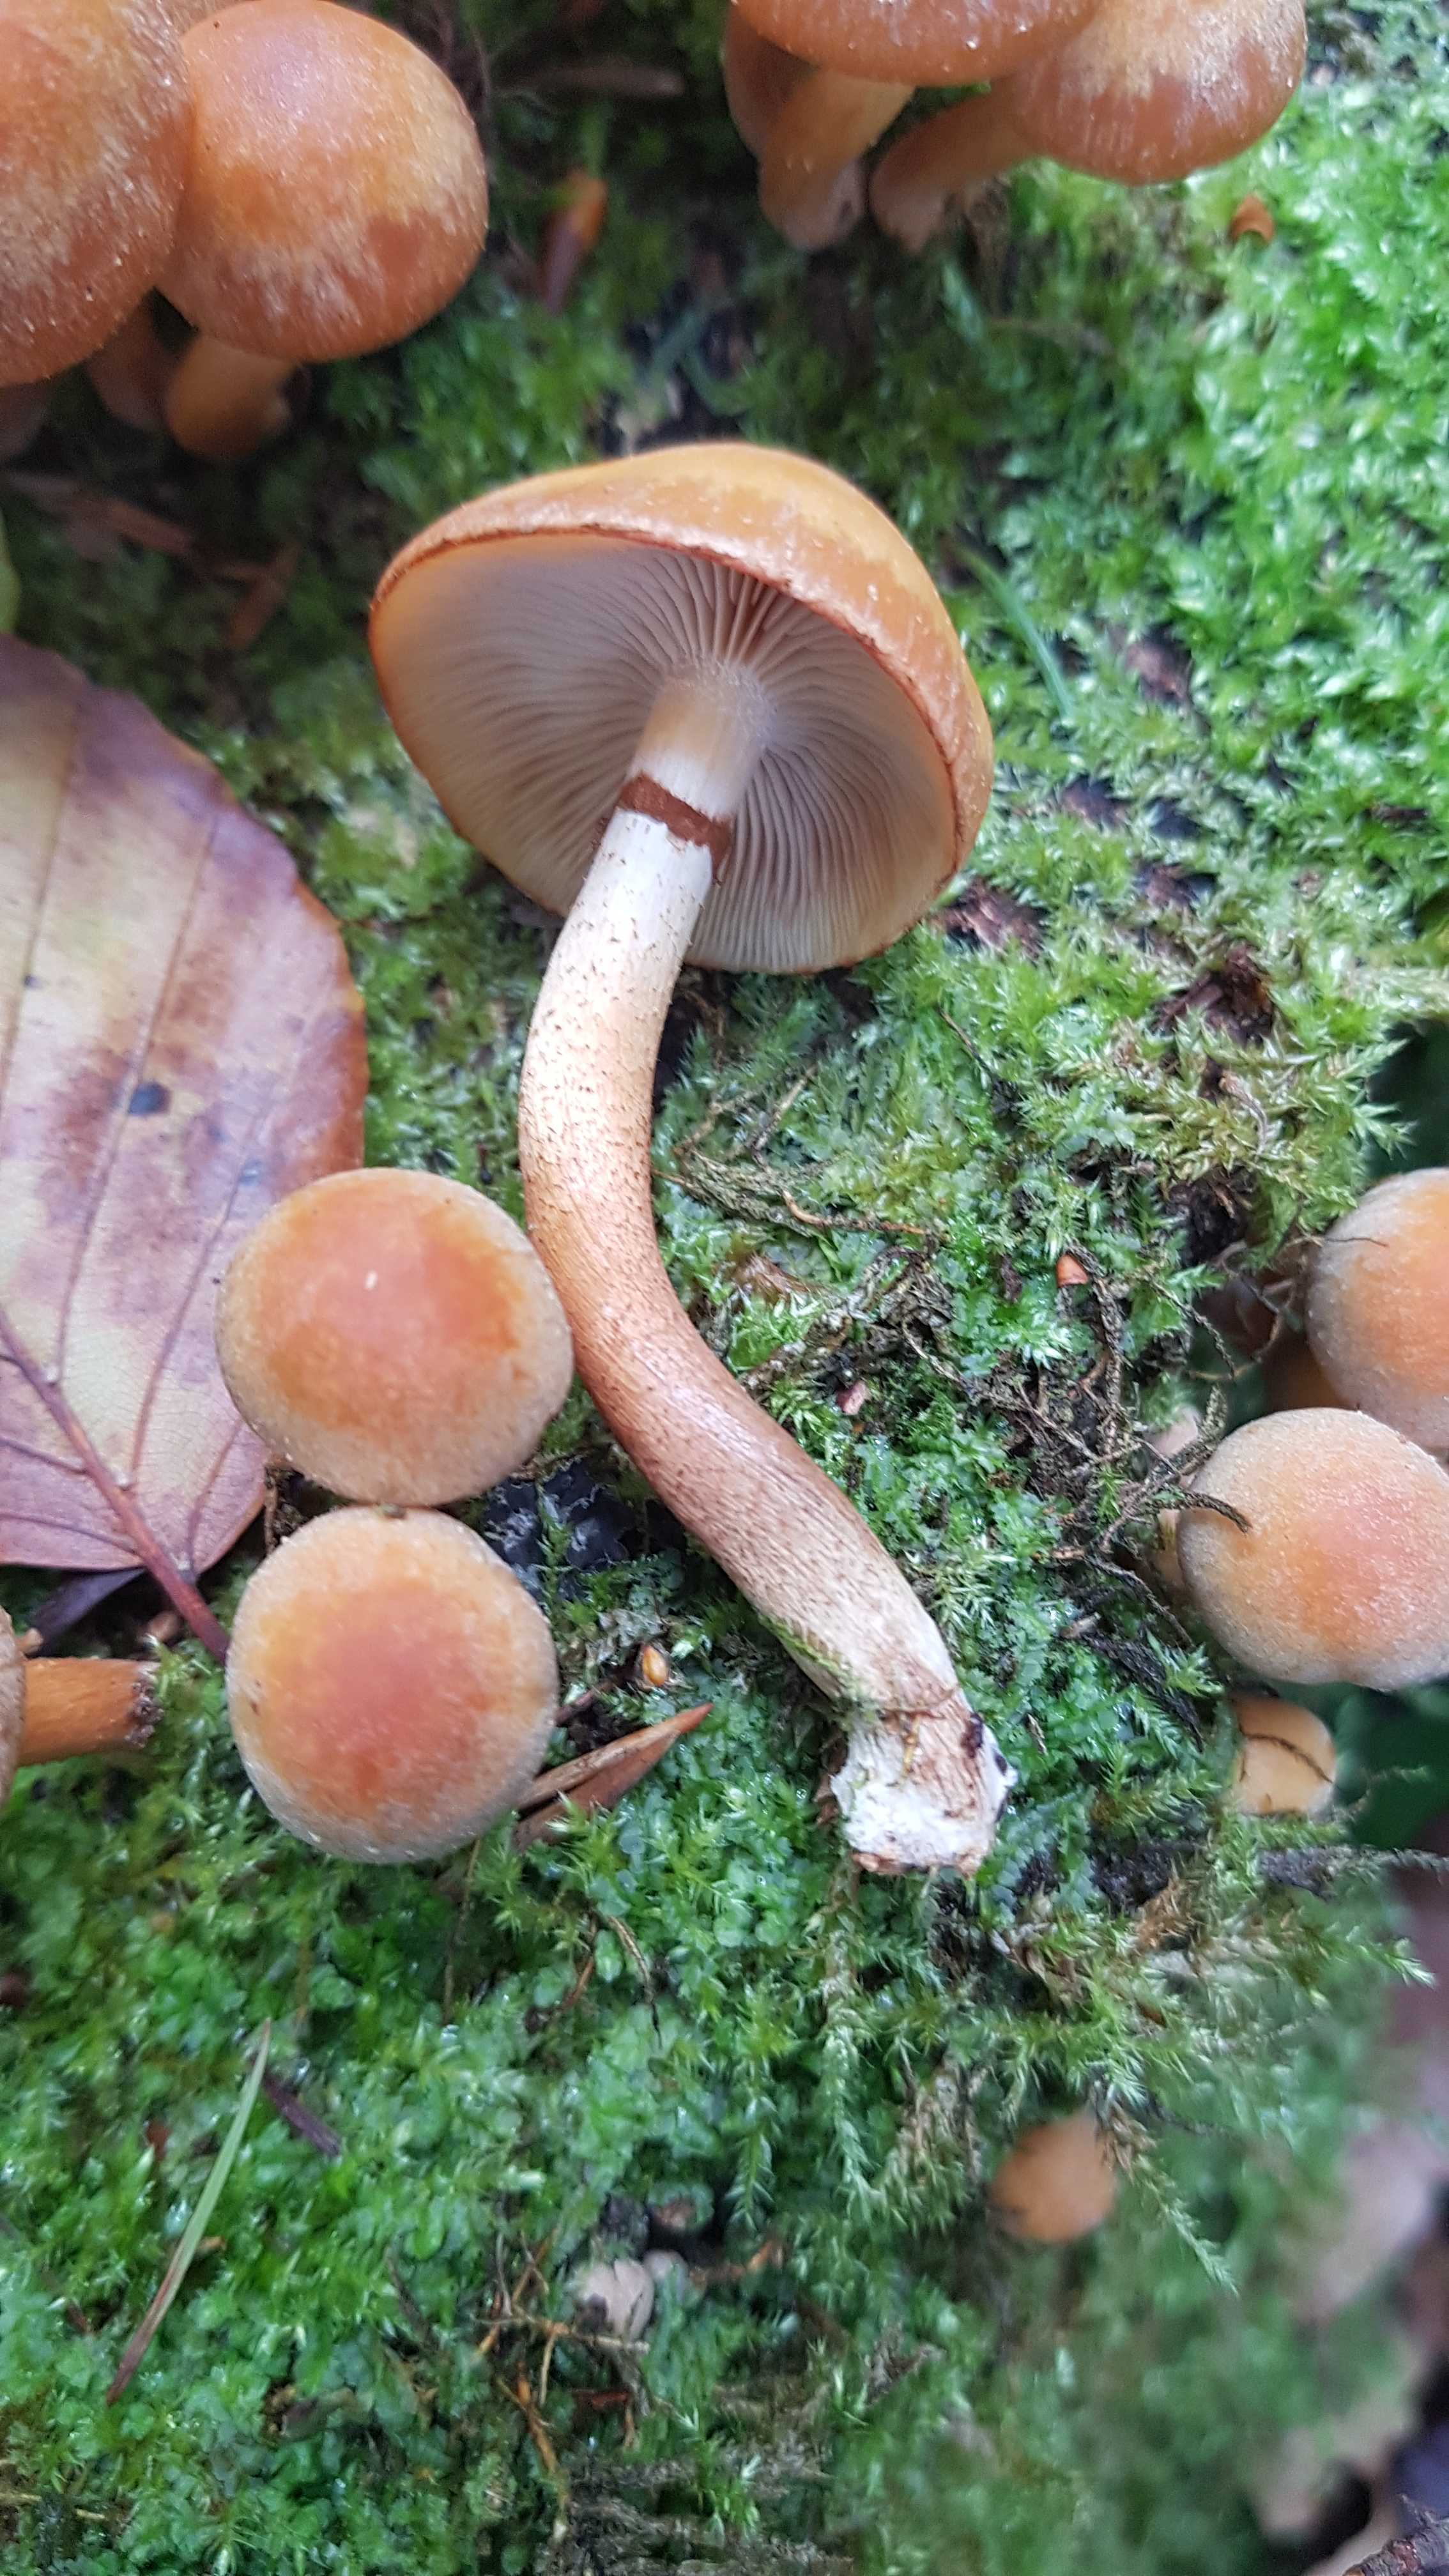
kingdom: Fungi
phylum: Basidiomycota
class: Agaricomycetes
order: Agaricales
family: Strophariaceae
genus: Kuehneromyces
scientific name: Kuehneromyces mutabilis
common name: foranderlig skælhat
